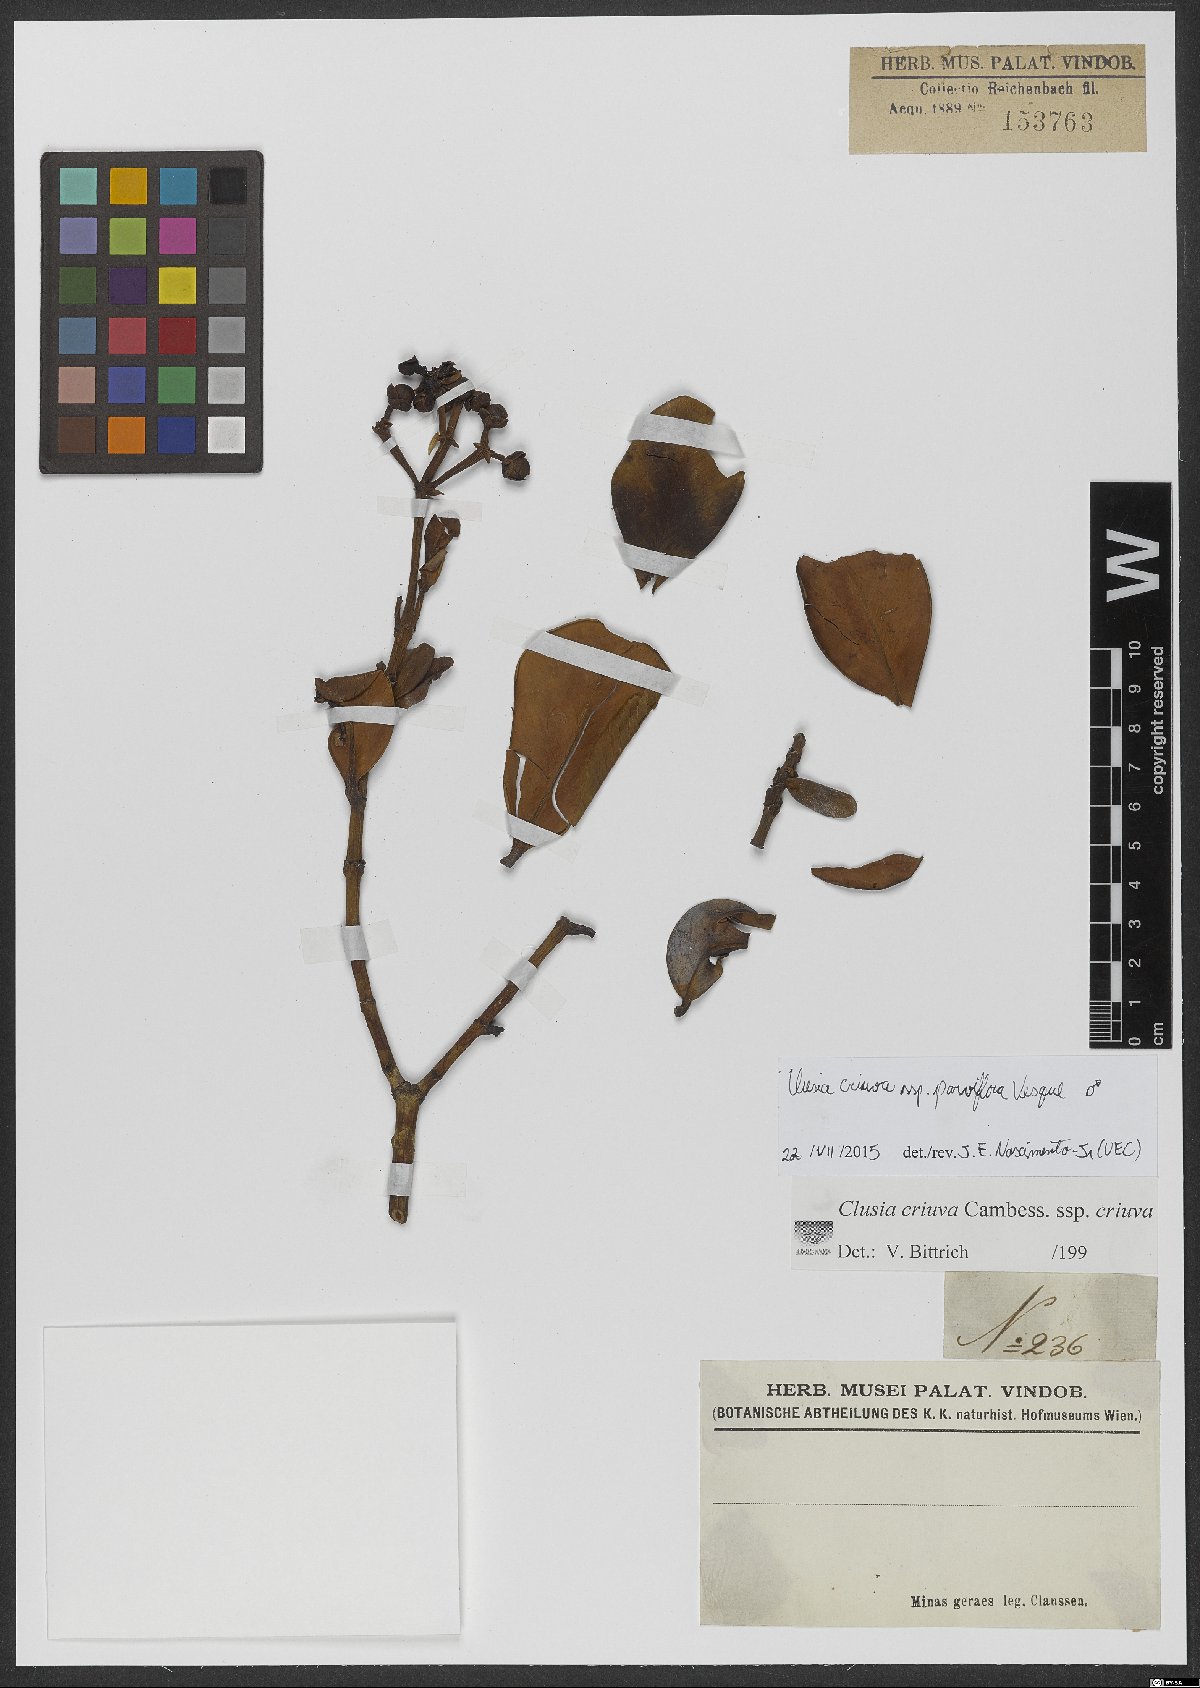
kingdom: Plantae
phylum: Tracheophyta
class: Magnoliopsida
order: Malpighiales
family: Clusiaceae
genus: Clusia
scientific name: Clusia criuva
